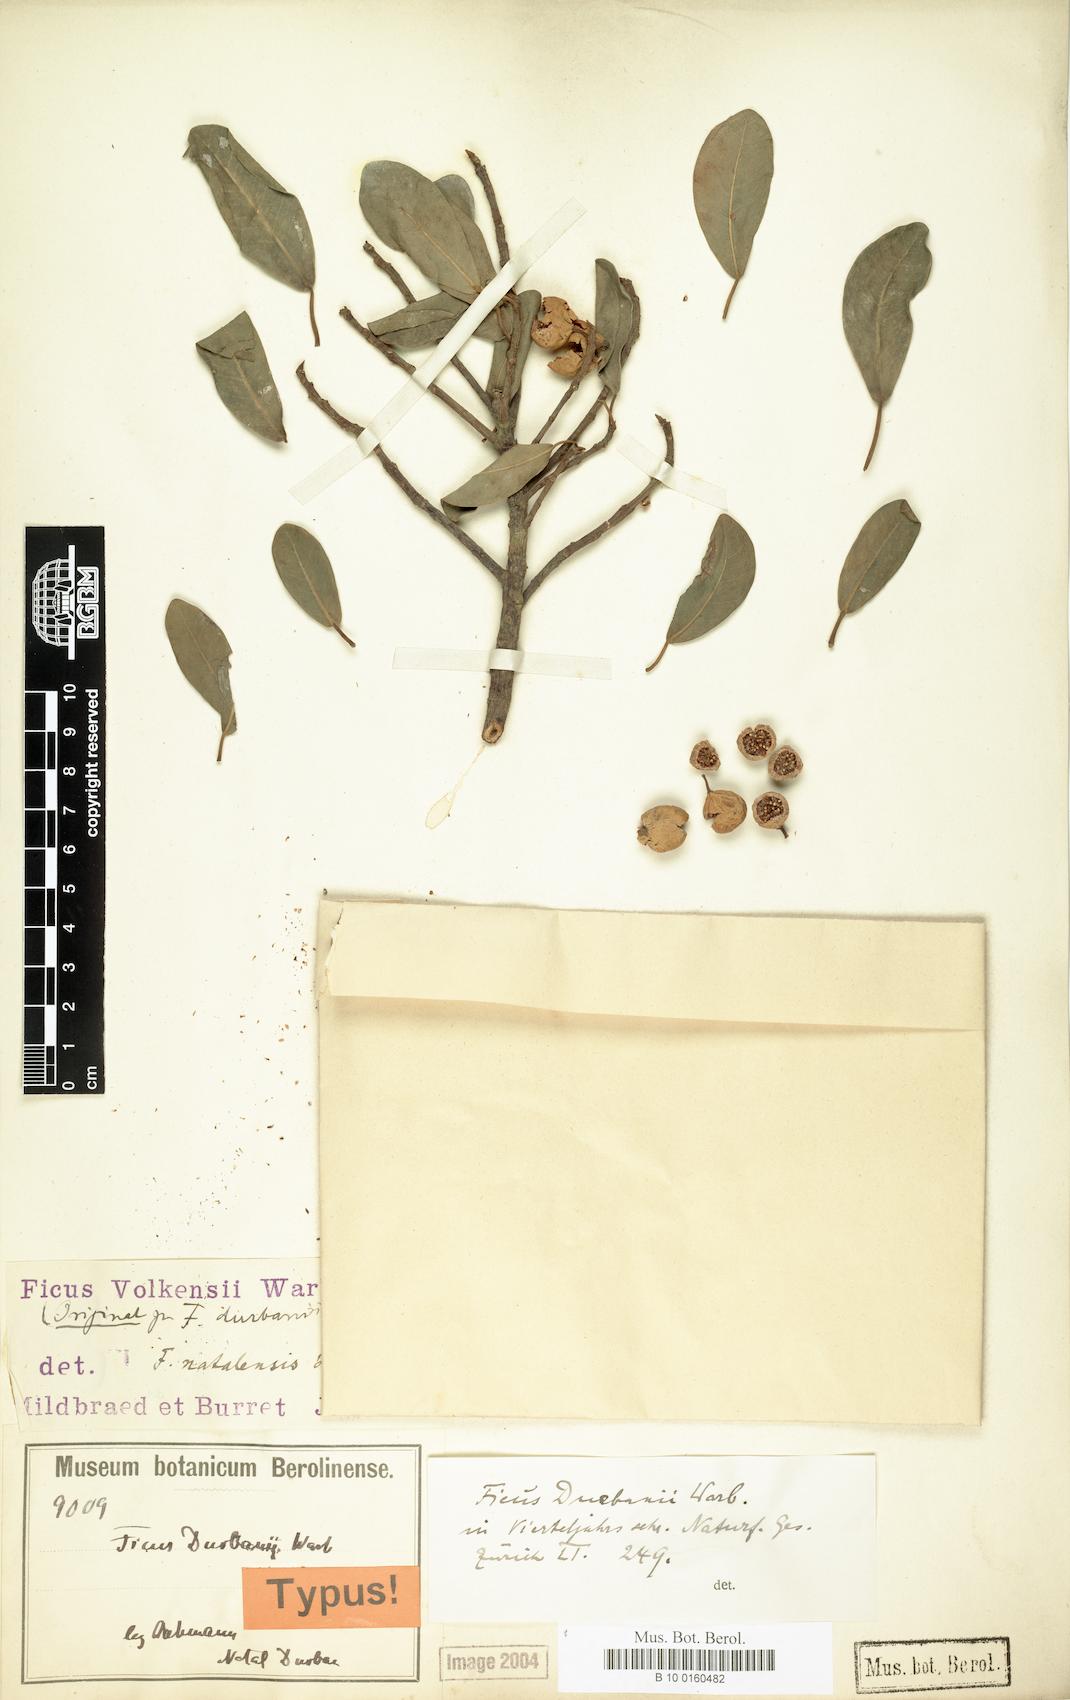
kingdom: Plantae
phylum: Tracheophyta
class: Magnoliopsida
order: Rosales
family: Moraceae
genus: Ficus
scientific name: Ficus natalensis
